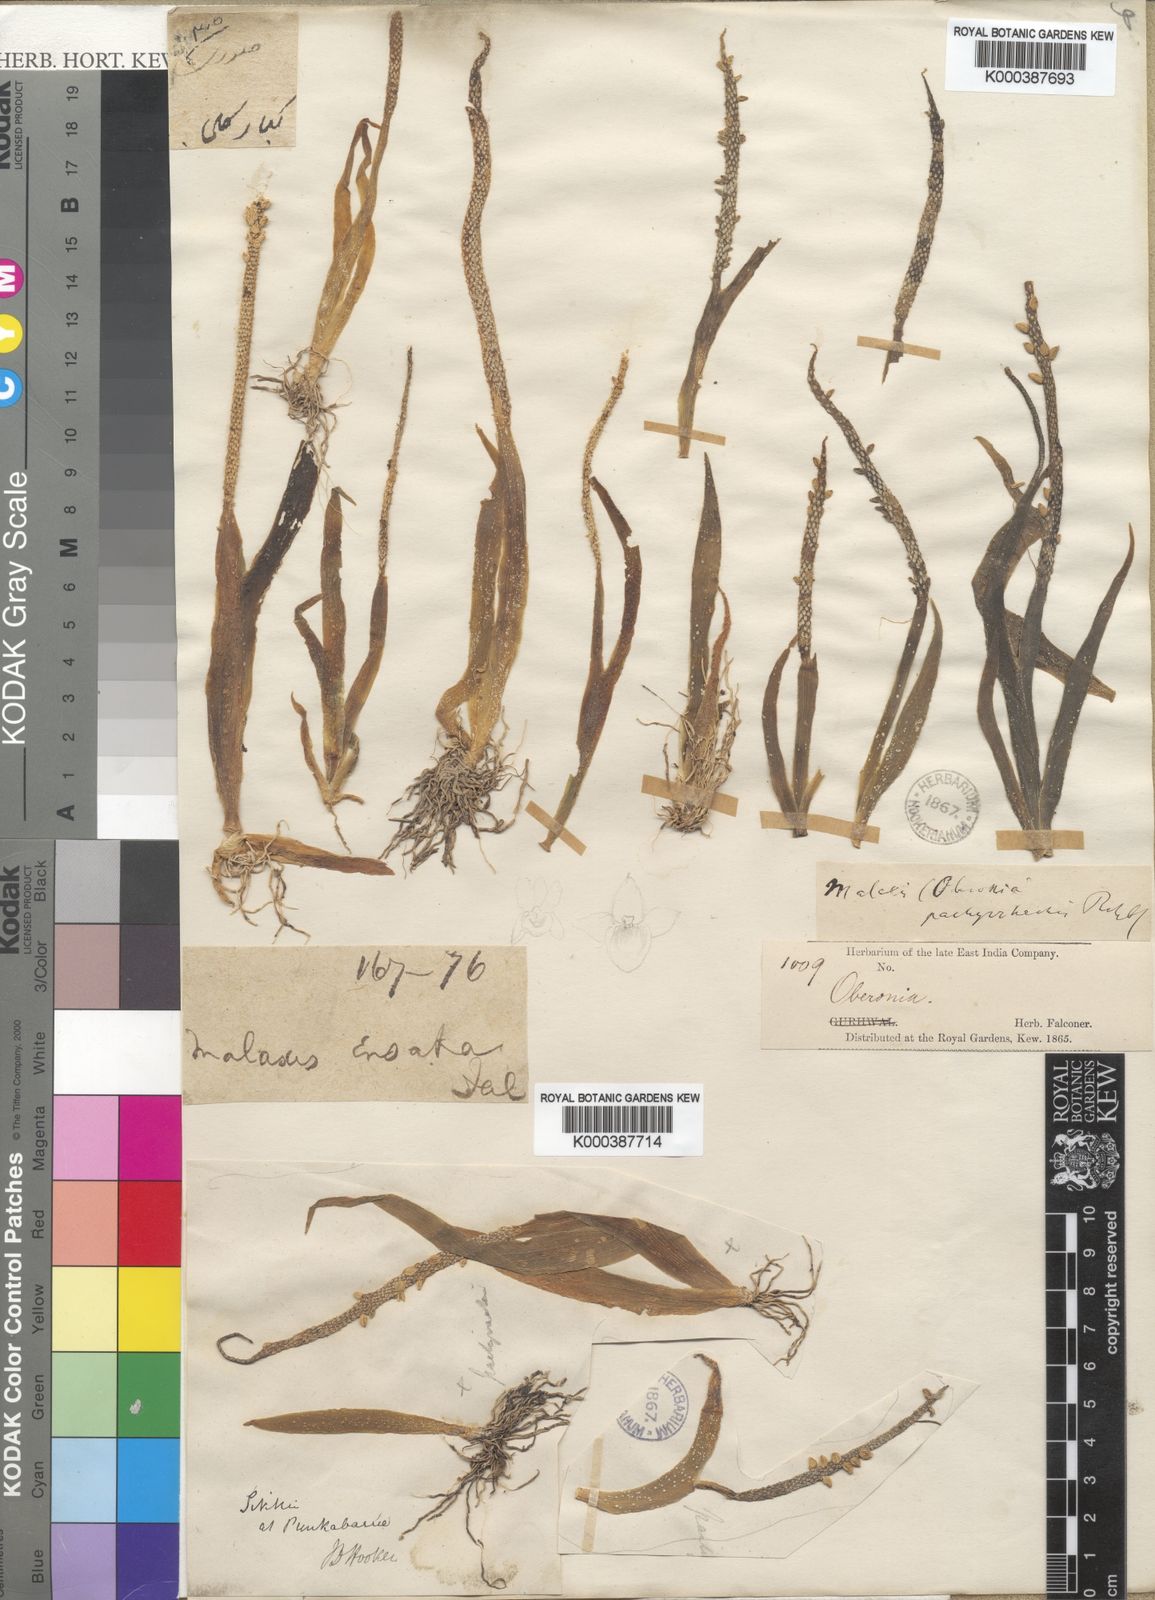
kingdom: Plantae
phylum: Tracheophyta
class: Liliopsida
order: Asparagales
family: Orchidaceae
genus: Oberonia
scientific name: Oberonia pachyrachis
